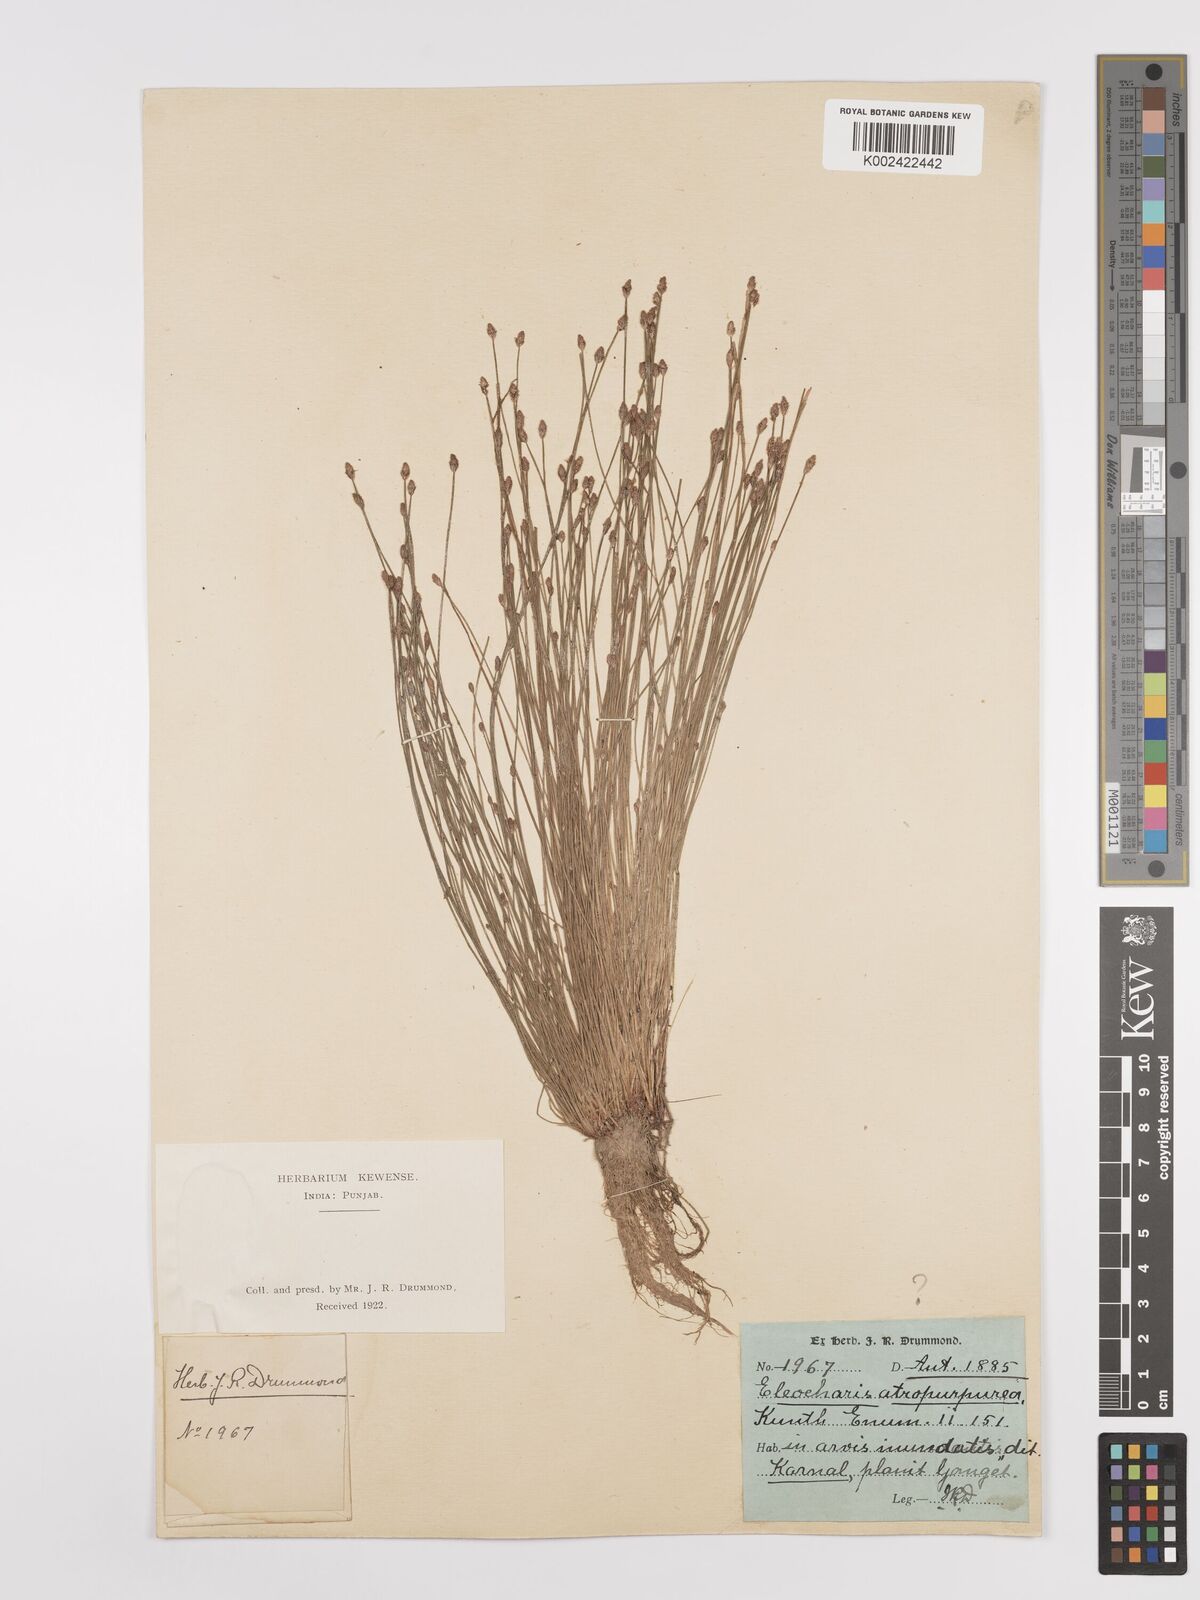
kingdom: Plantae
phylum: Tracheophyta
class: Liliopsida
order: Poales
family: Cyperaceae
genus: Eleocharis
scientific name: Eleocharis atropurpurea
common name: Purple spikerush
